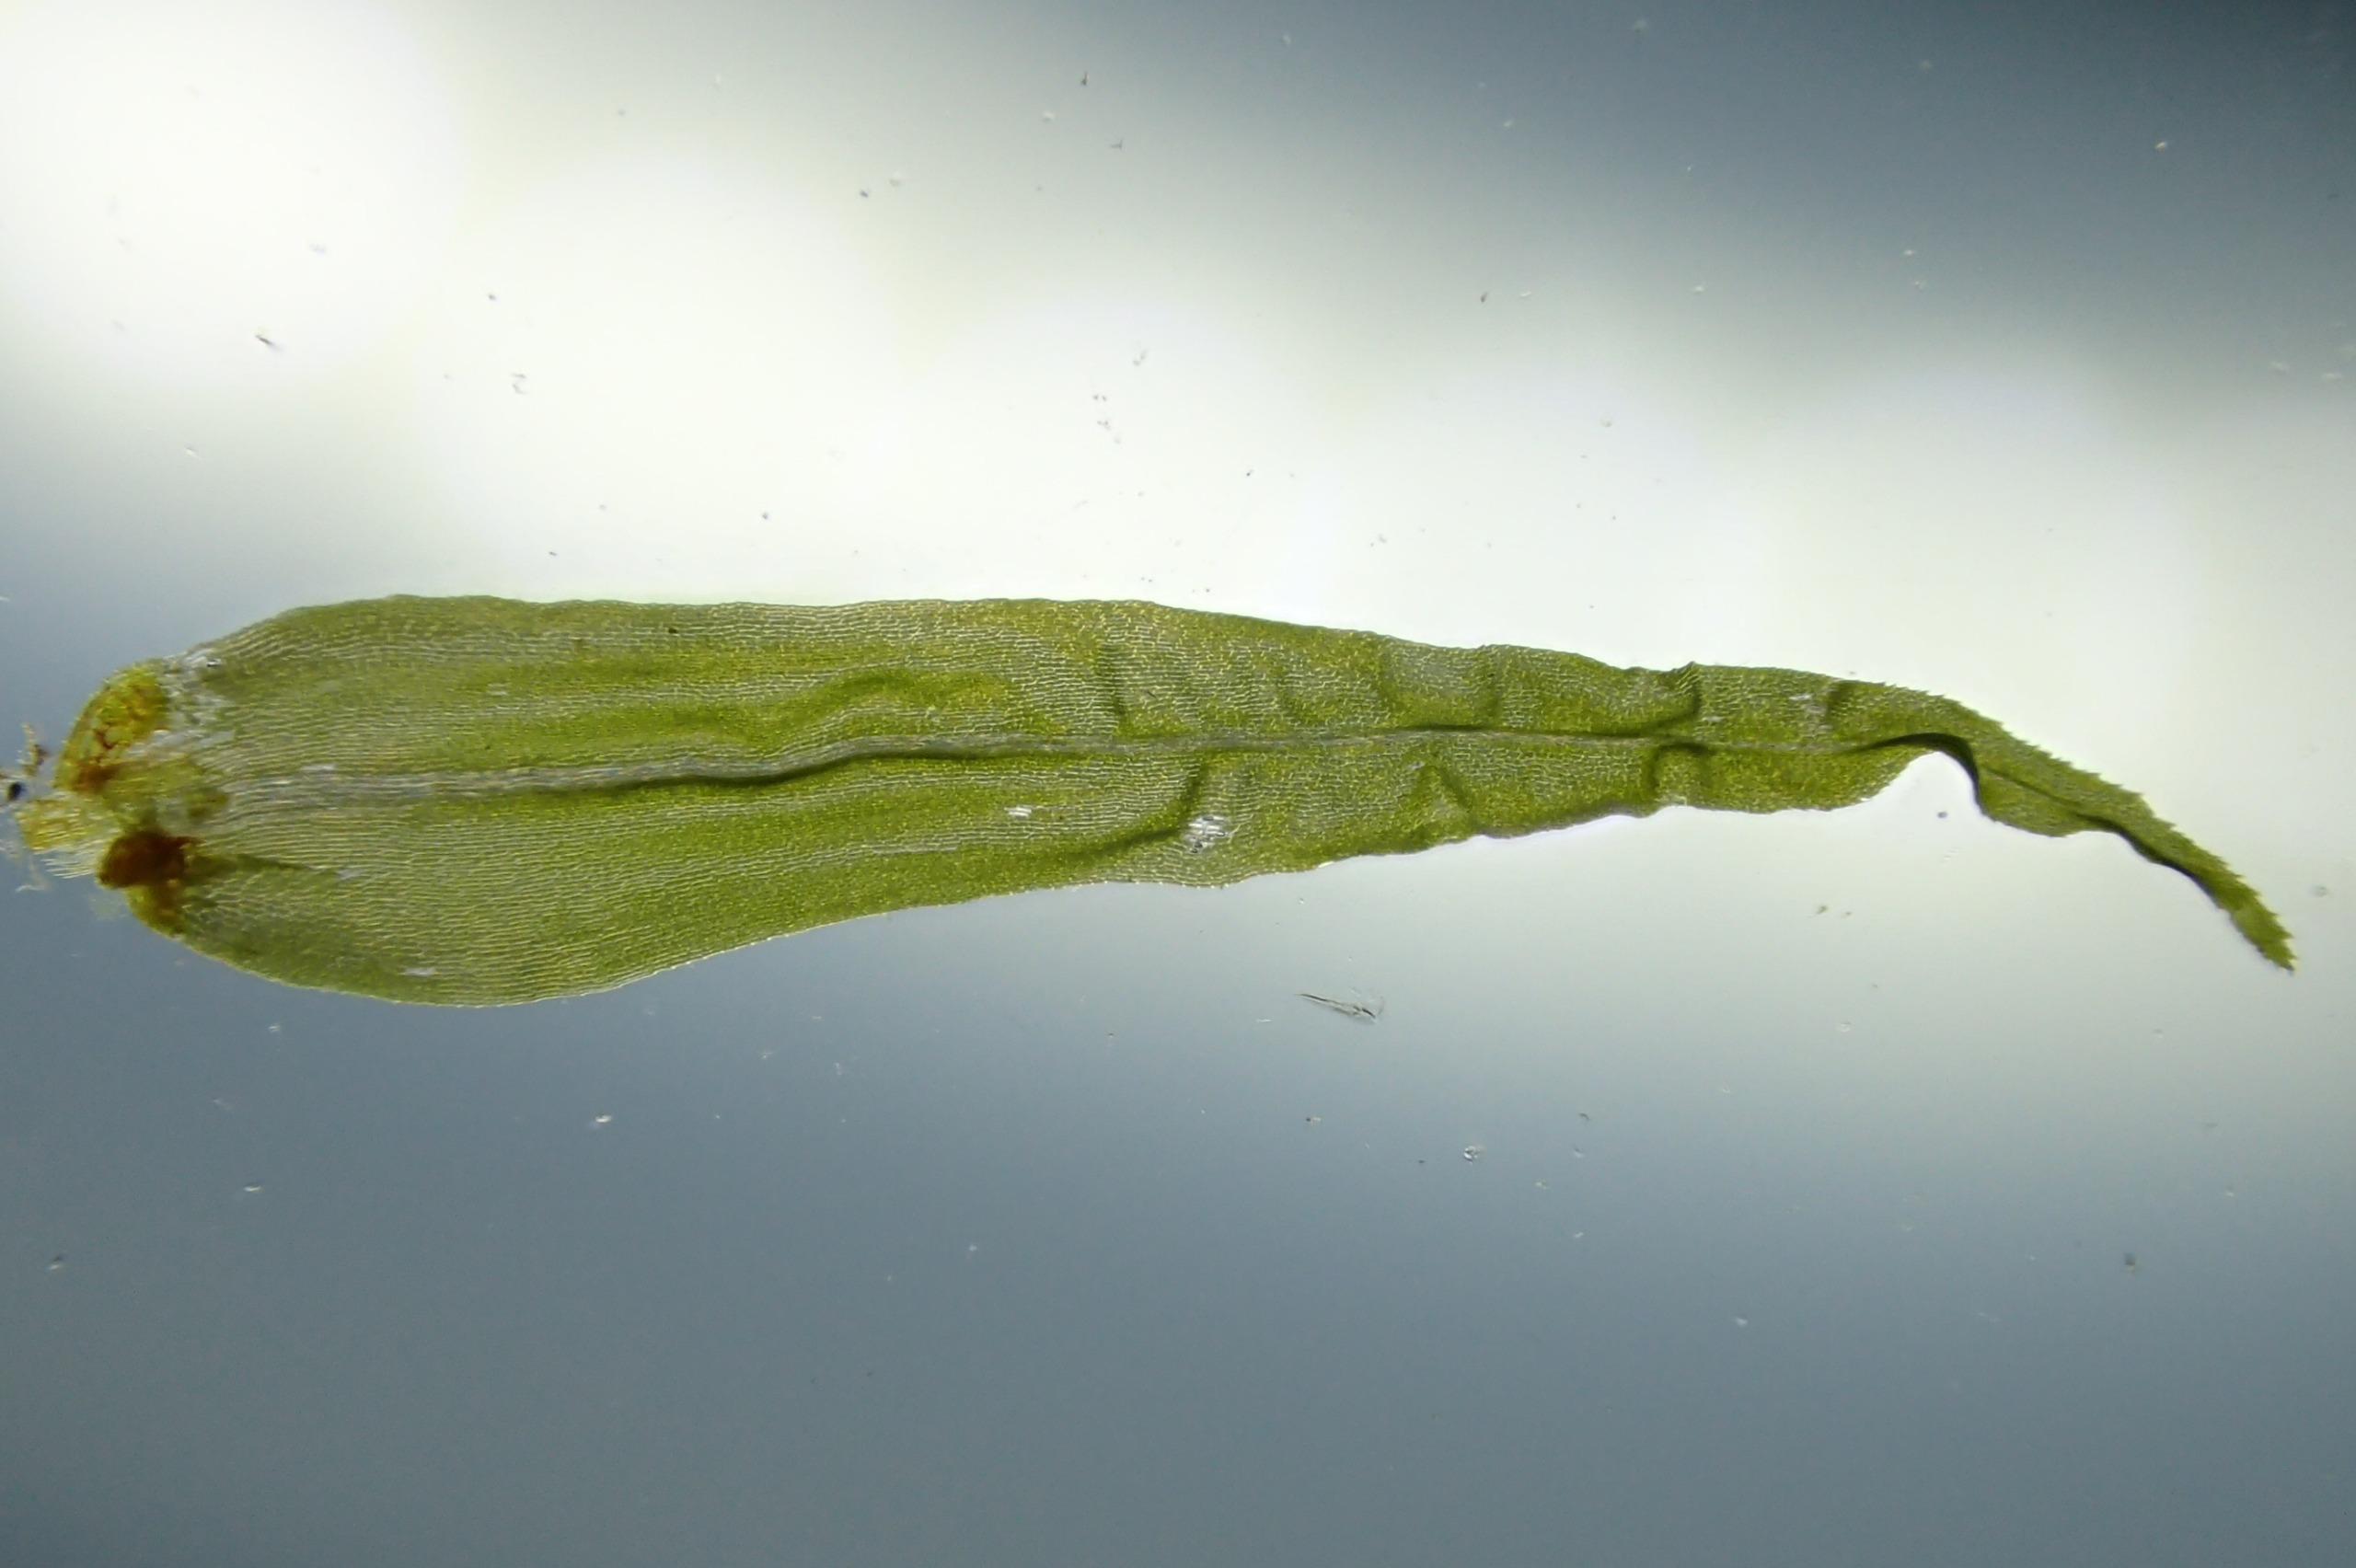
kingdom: Plantae
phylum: Bryophyta
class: Bryopsida
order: Dicranales
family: Dicranaceae
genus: Dicranum
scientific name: Dicranum bonjeanii
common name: Kær-kløvtand
